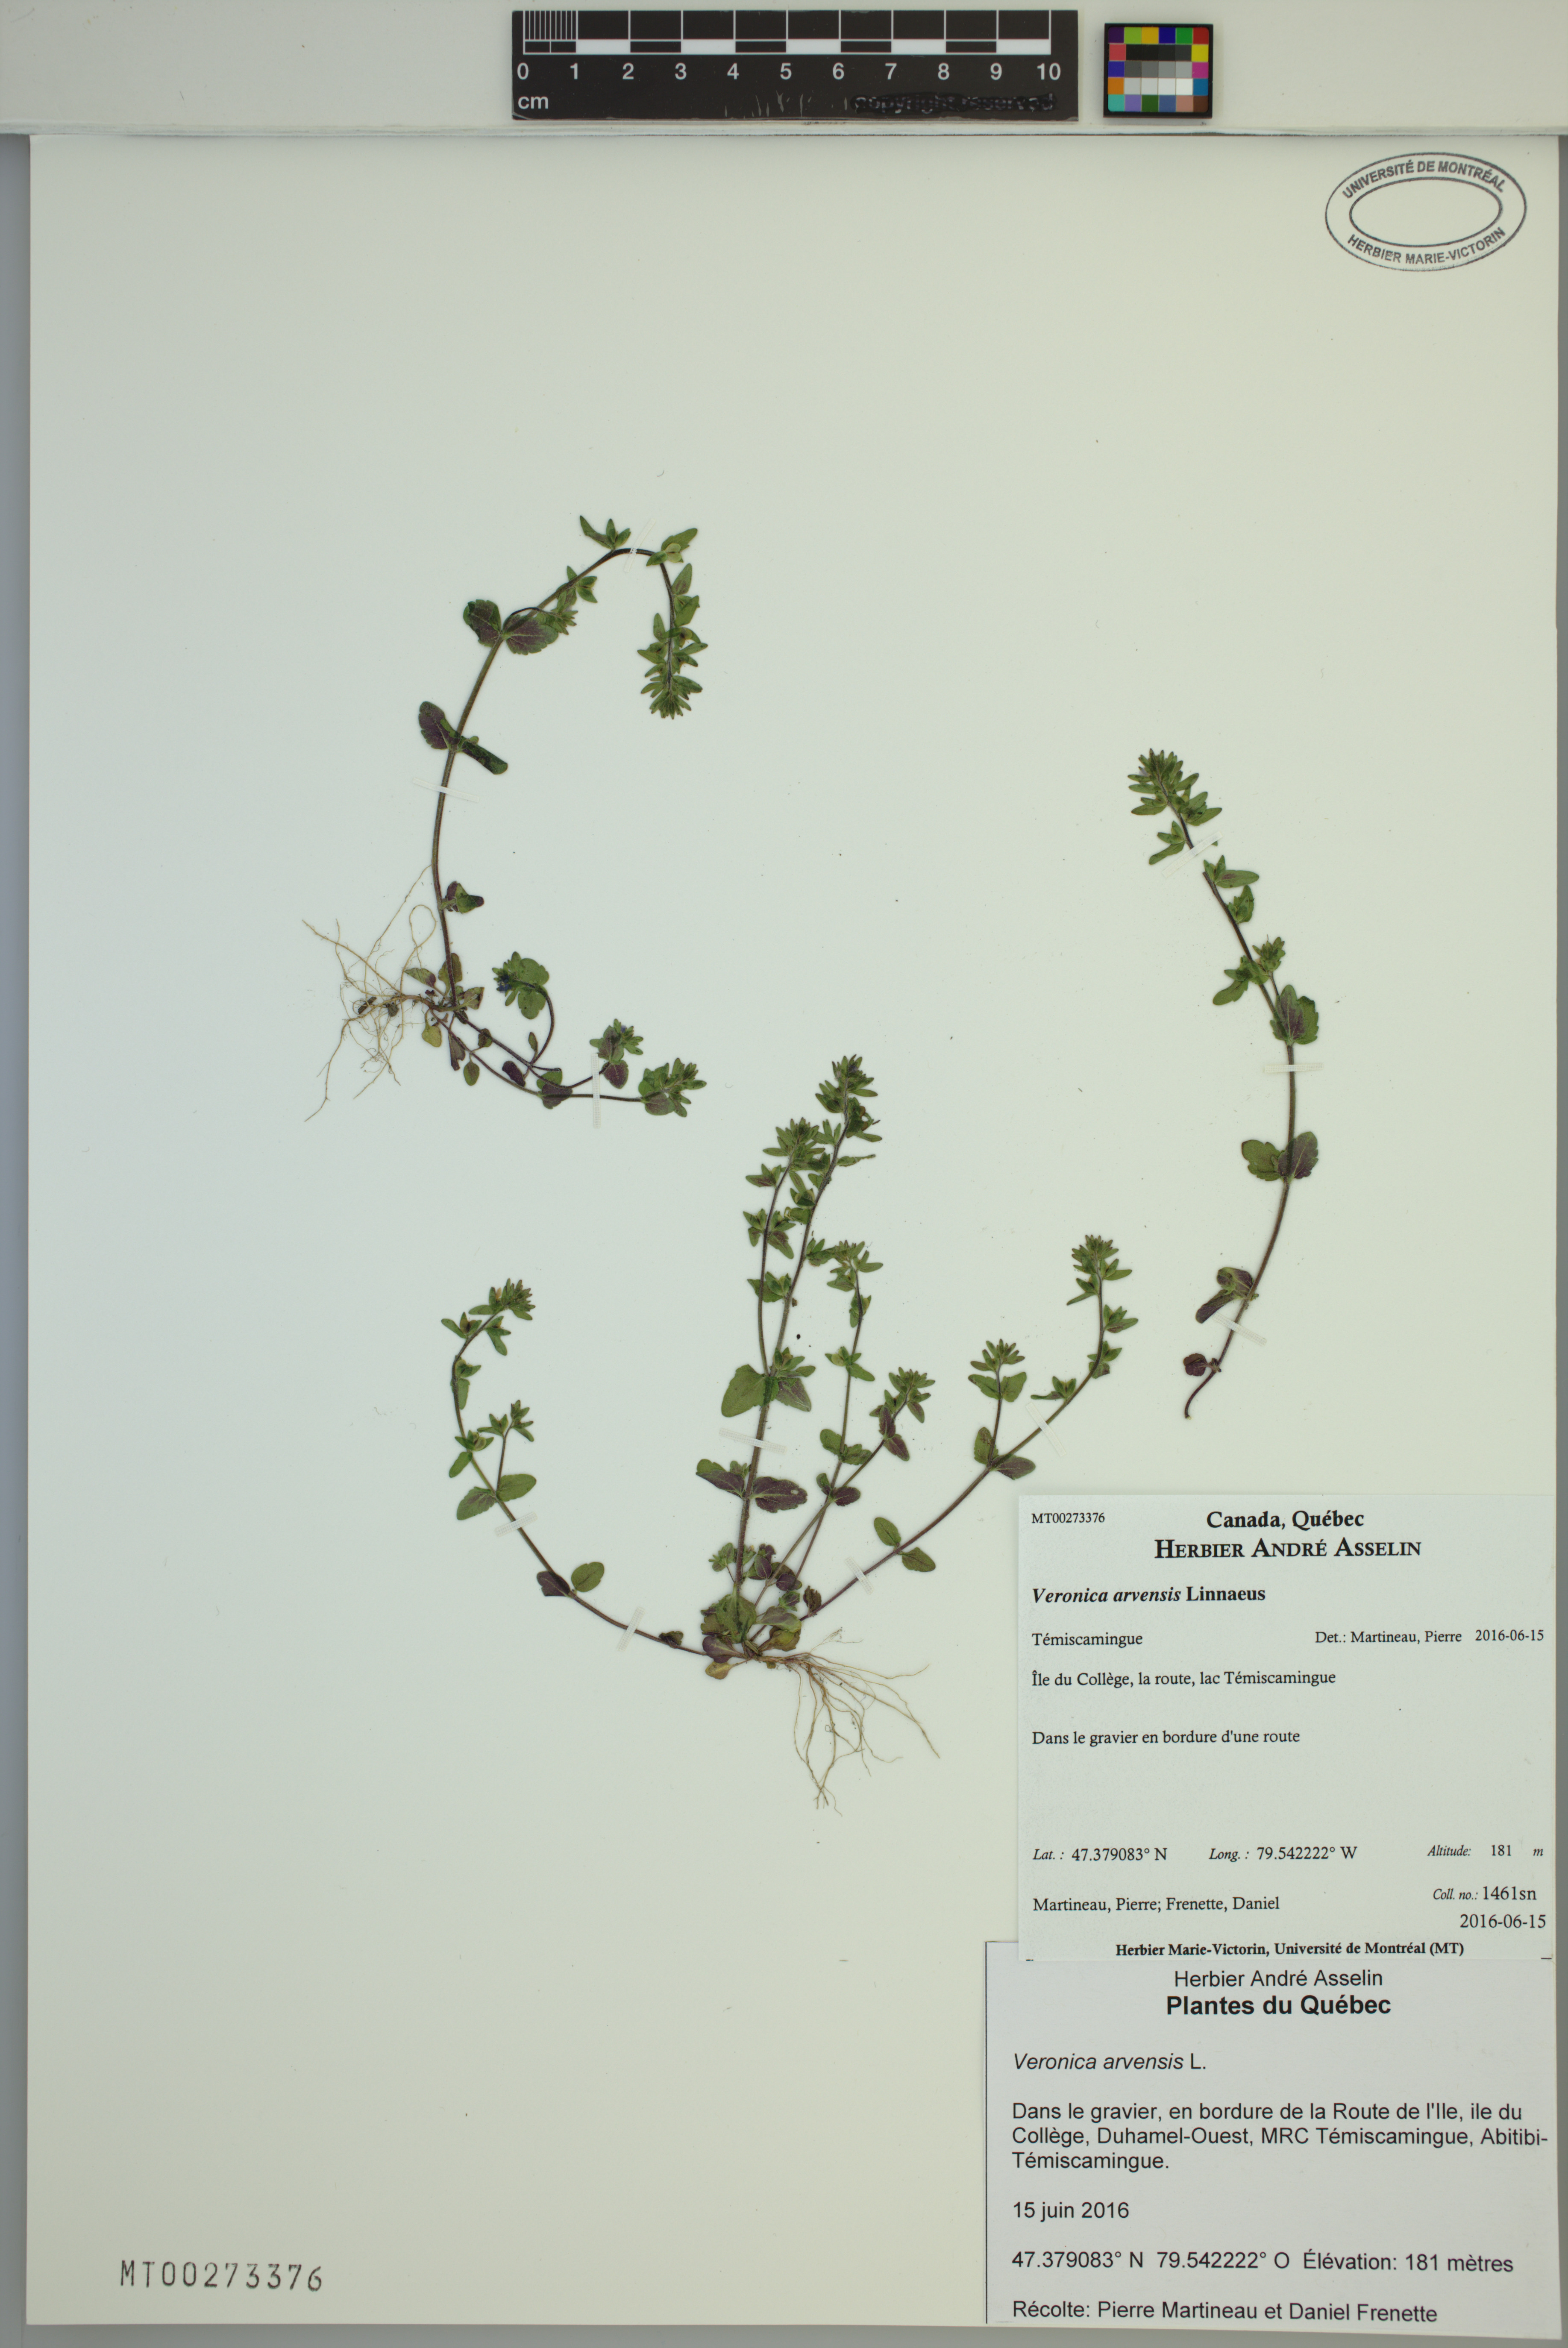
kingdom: Plantae
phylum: Tracheophyta
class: Magnoliopsida
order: Lamiales
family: Plantaginaceae
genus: Veronica
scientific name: Veronica arvensis
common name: Corn speedwell
